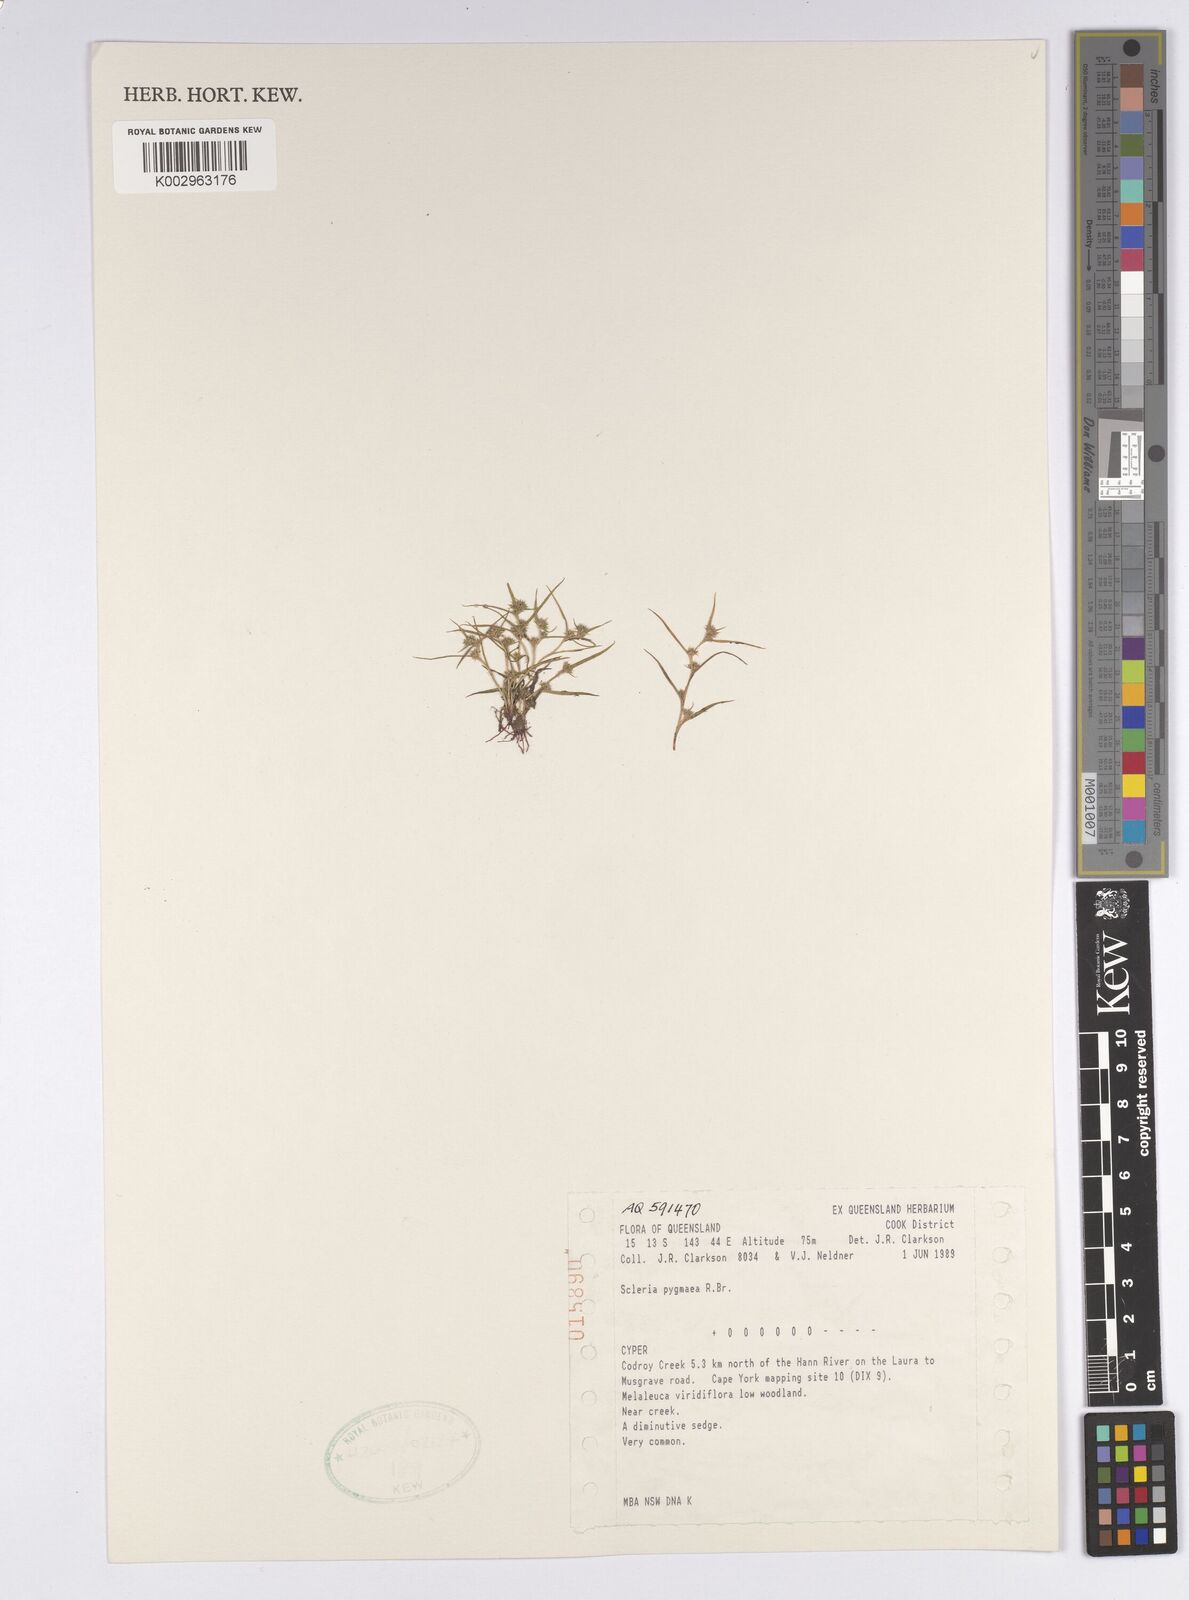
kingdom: Plantae
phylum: Tracheophyta
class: Liliopsida
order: Poales
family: Cyperaceae
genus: Diplacrum
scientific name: Diplacrum pygmaeum
